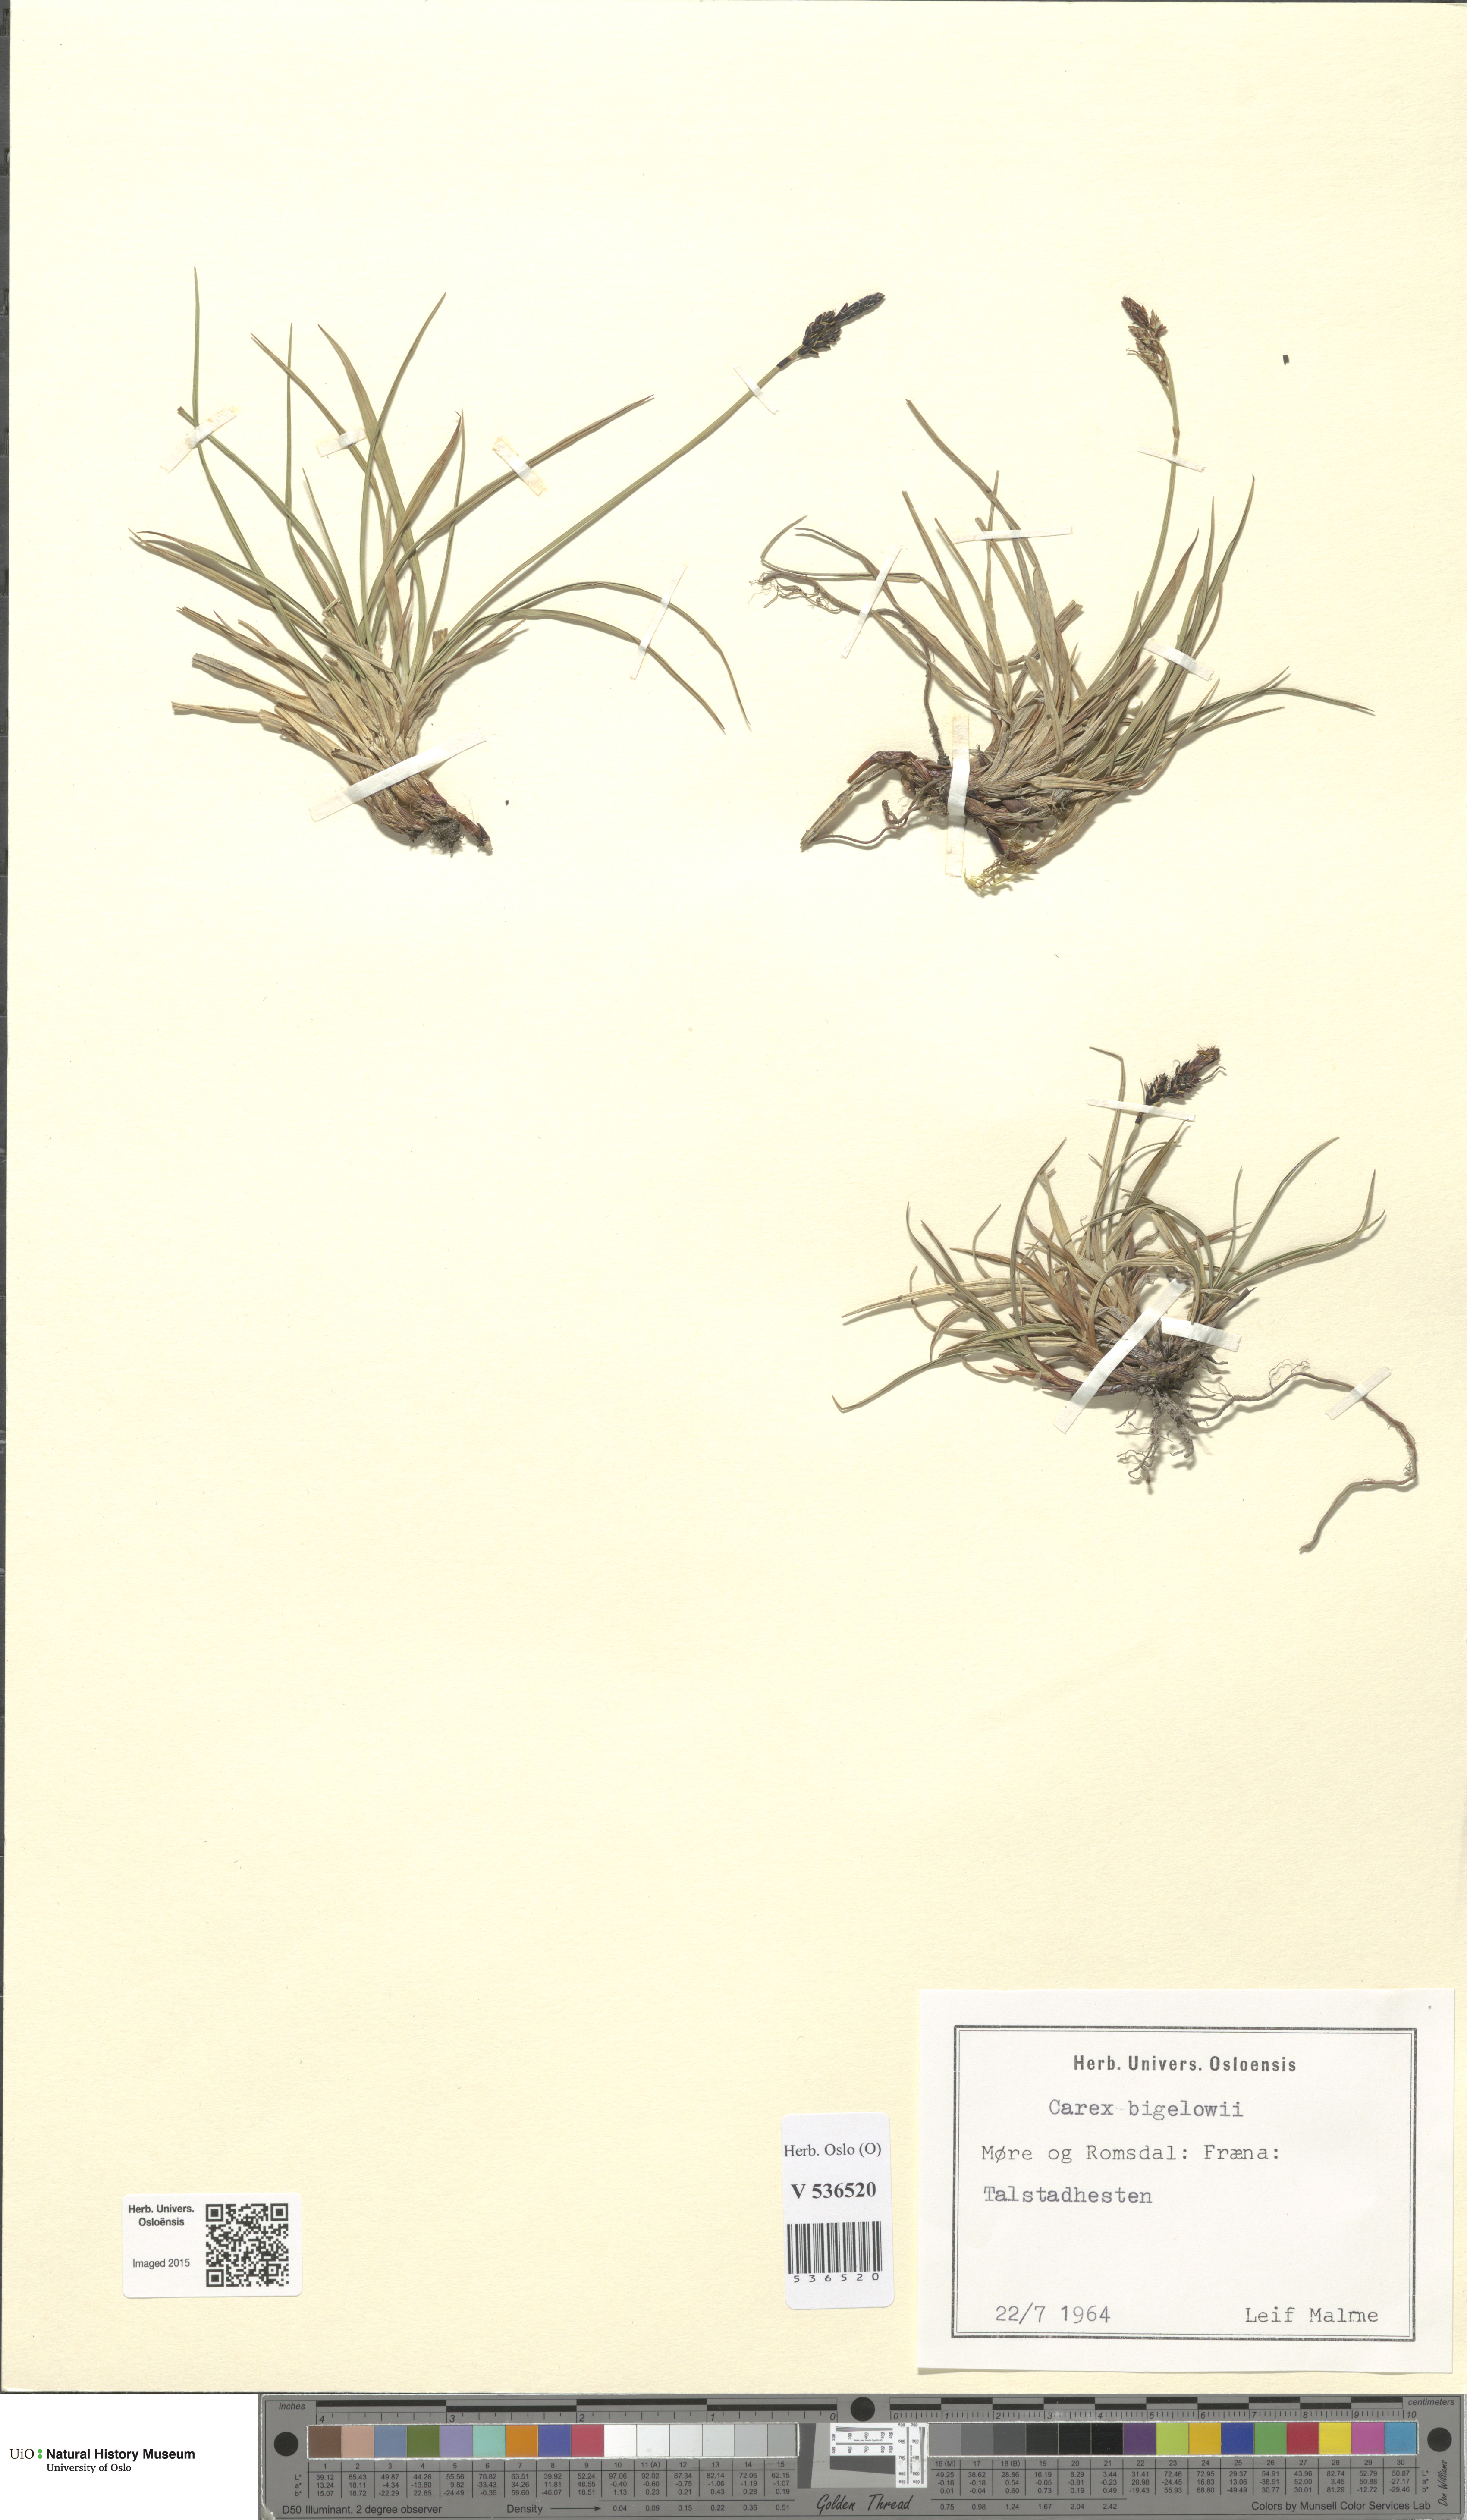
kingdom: Plantae
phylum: Tracheophyta
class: Liliopsida
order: Poales
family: Cyperaceae
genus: Carex
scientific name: Carex bigelowii
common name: Stiff sedge
